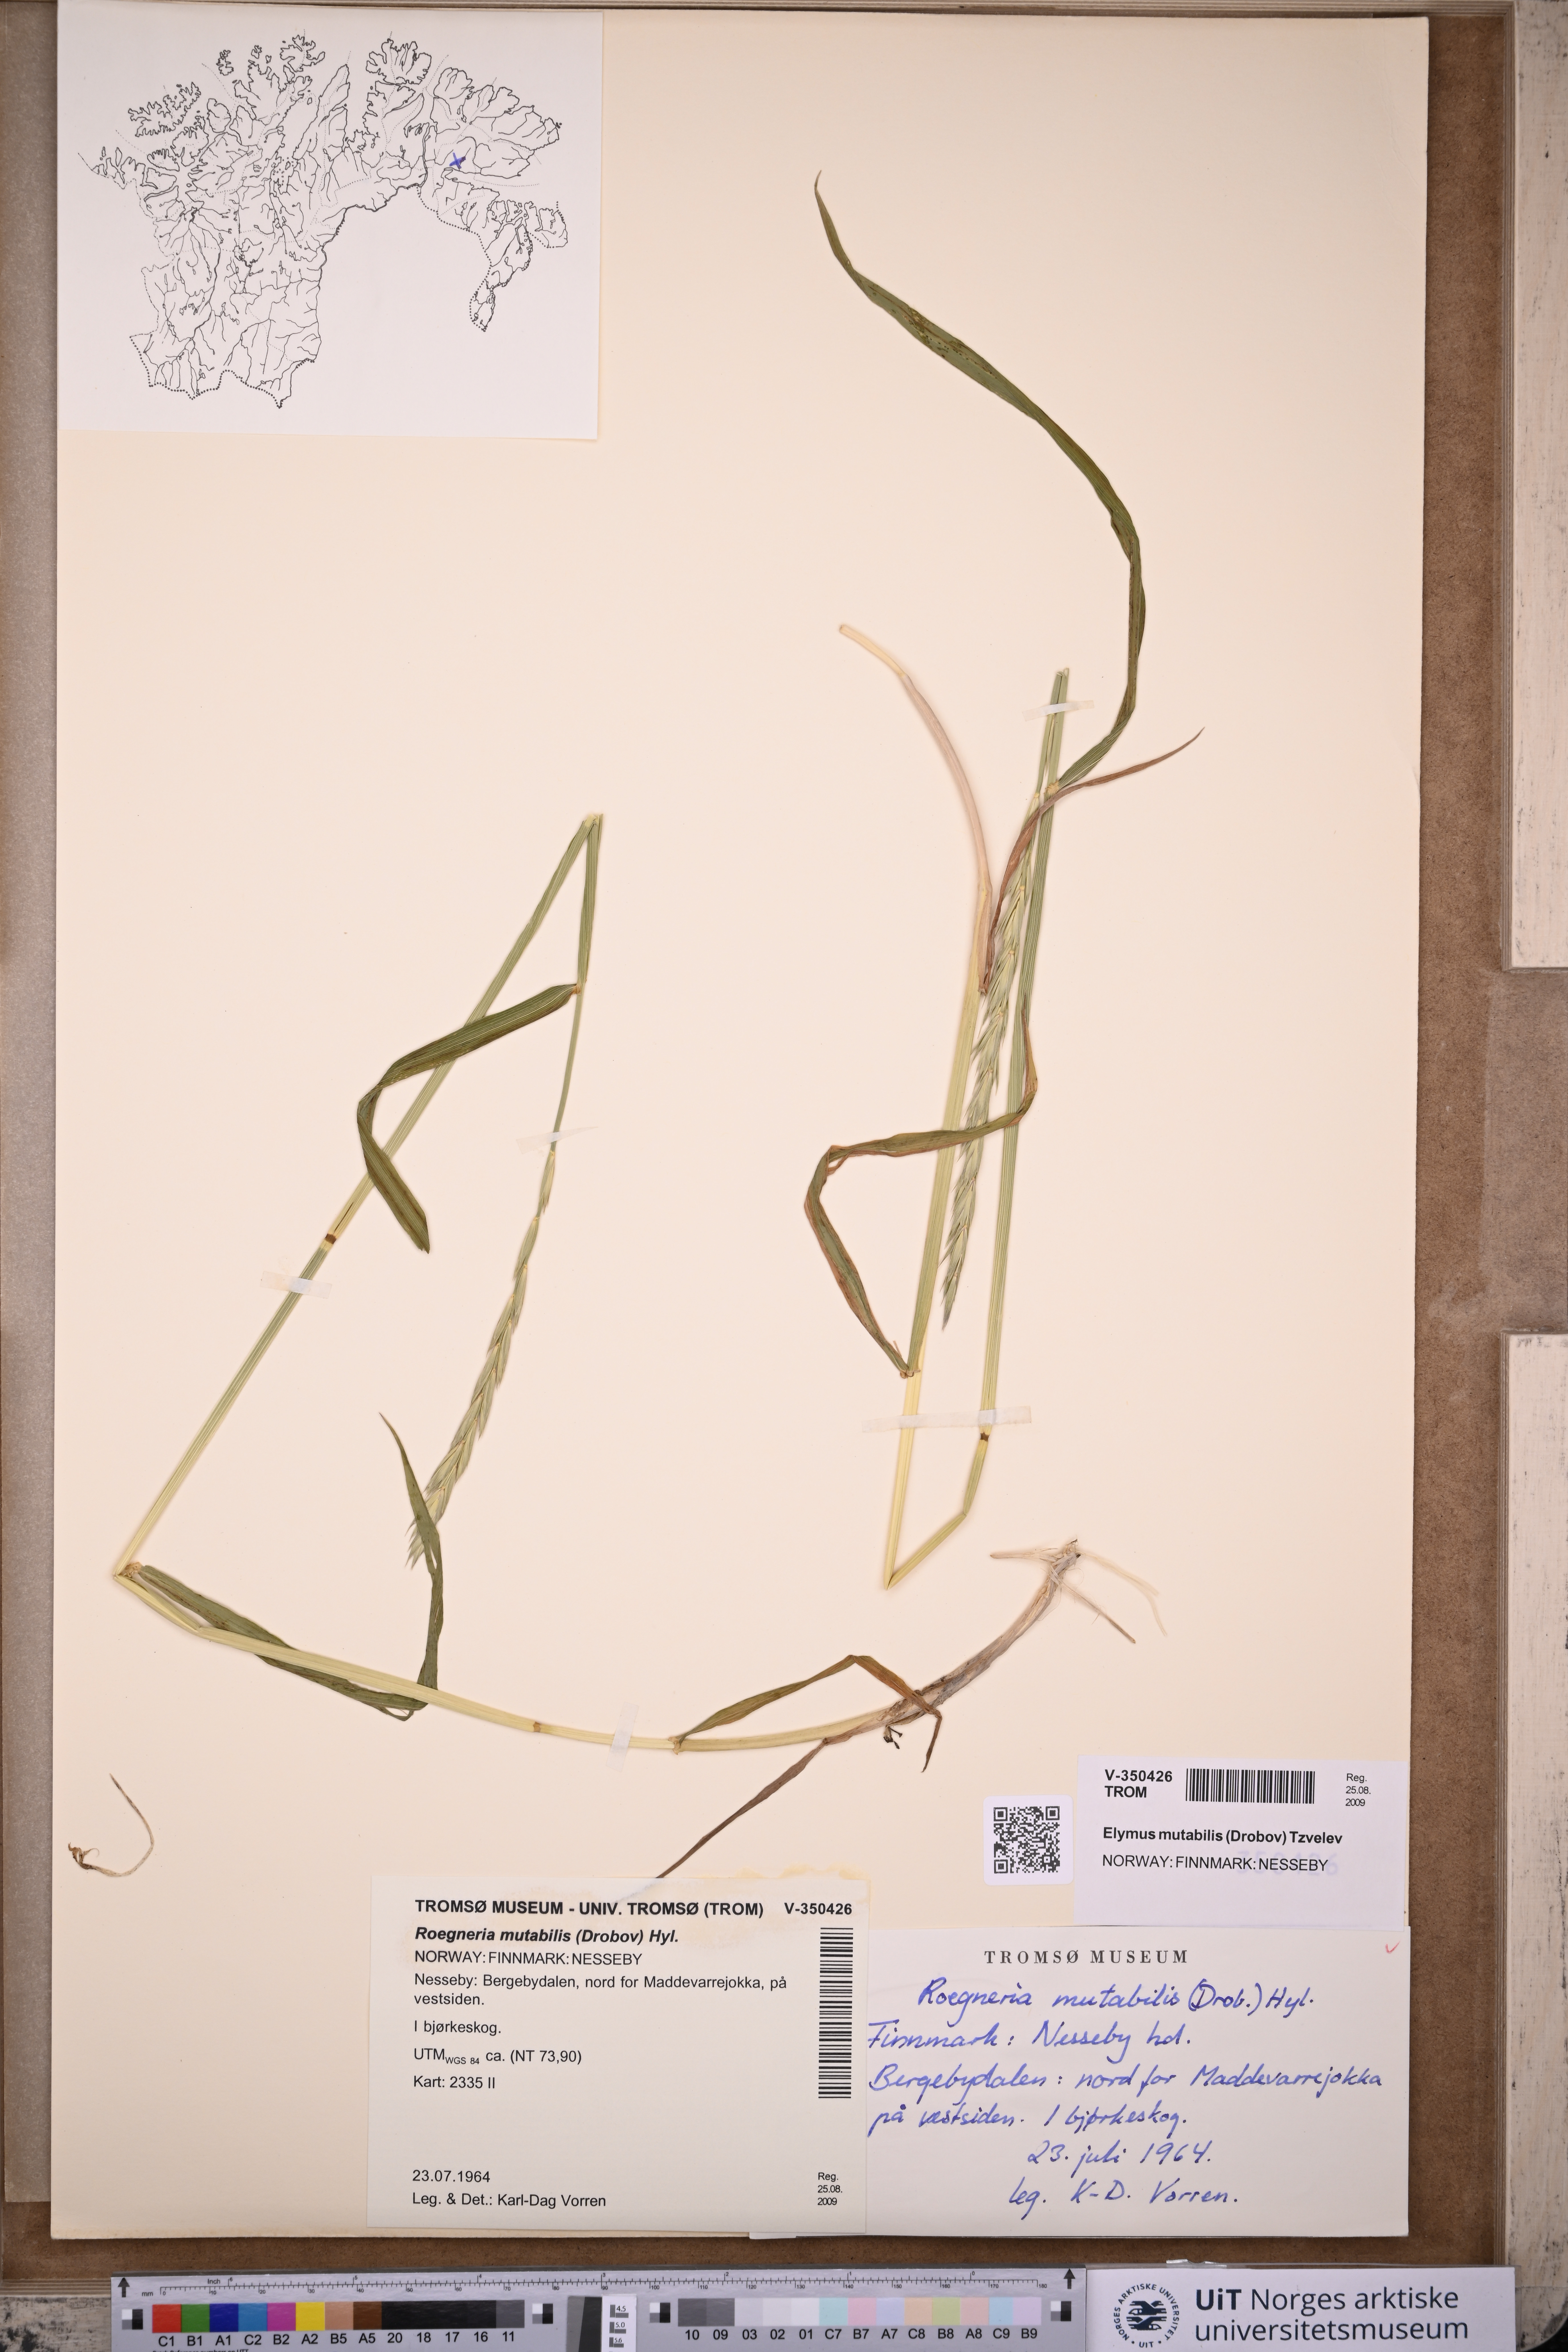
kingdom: Plantae
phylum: Tracheophyta
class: Liliopsida
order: Poales
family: Poaceae
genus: Elymus
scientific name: Elymus mutabilis
